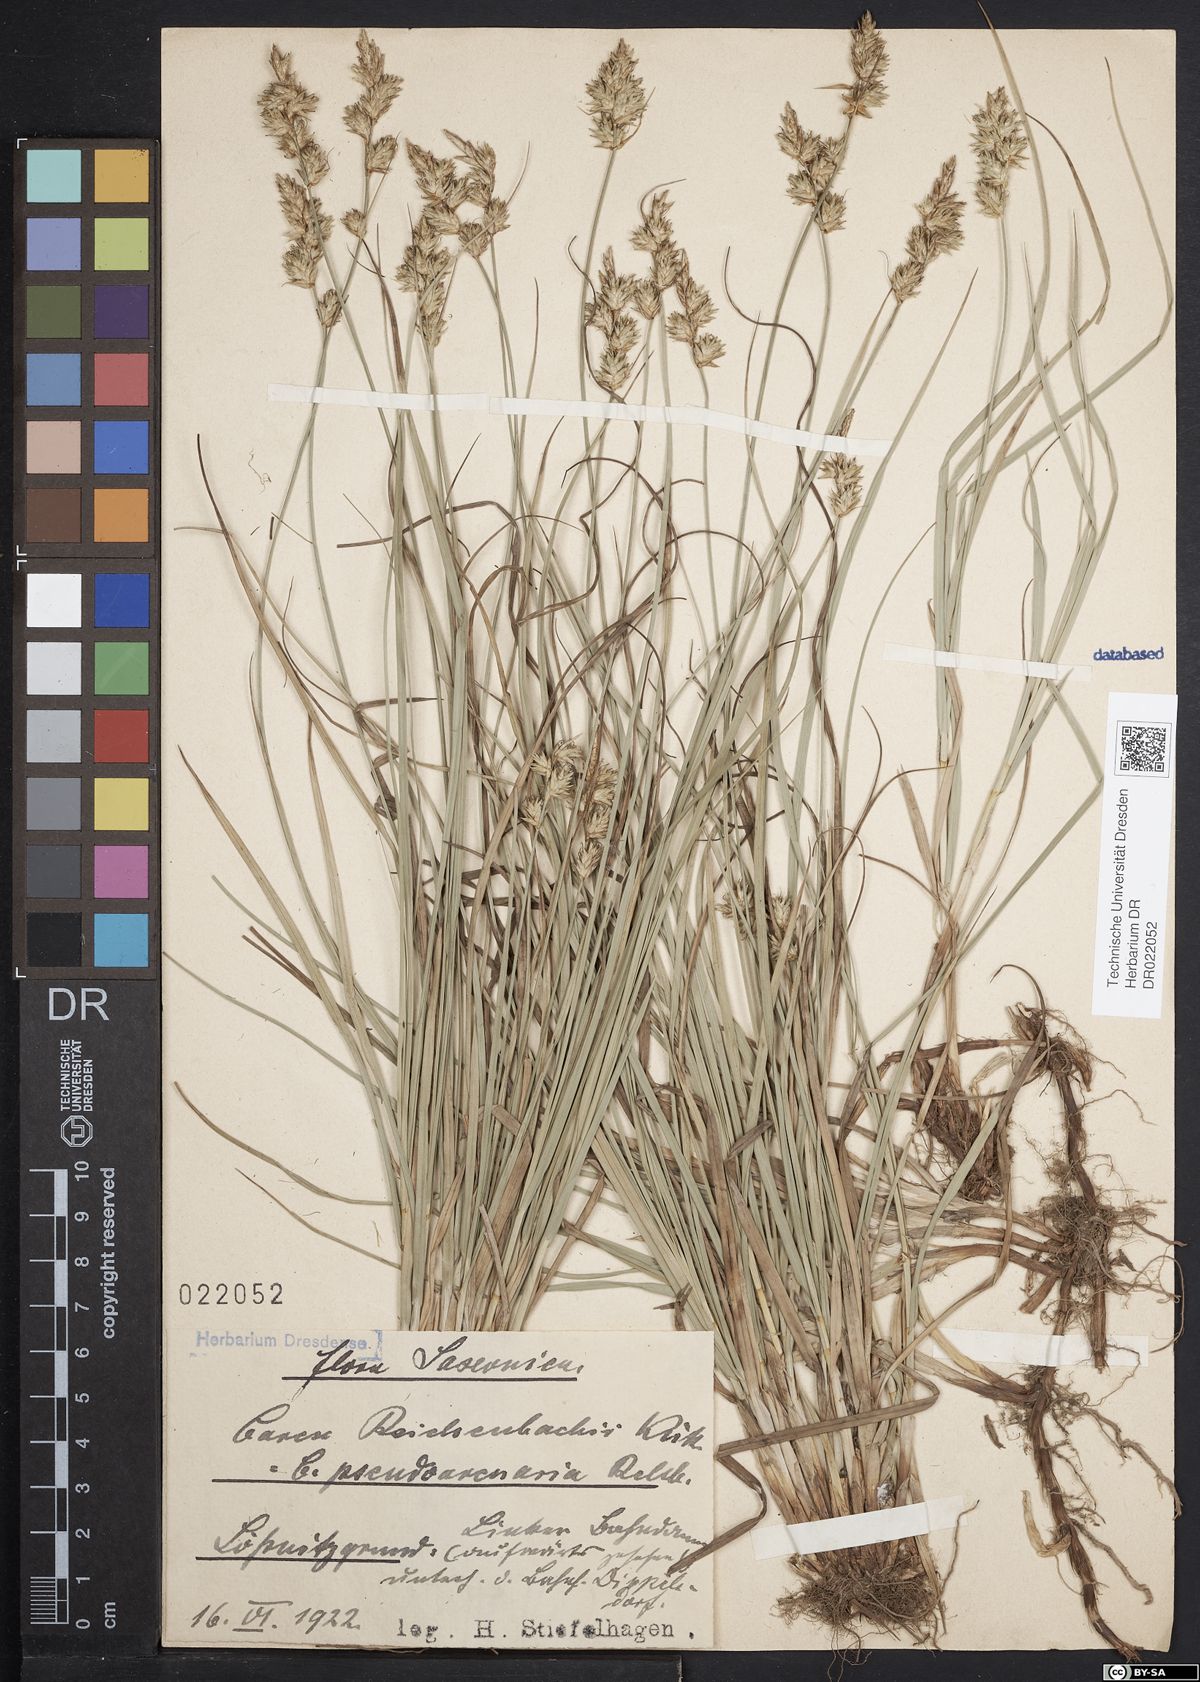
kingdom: Plantae
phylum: Tracheophyta
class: Liliopsida
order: Poales
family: Cyperaceae
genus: Carex
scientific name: Carex pseudobrizoides
